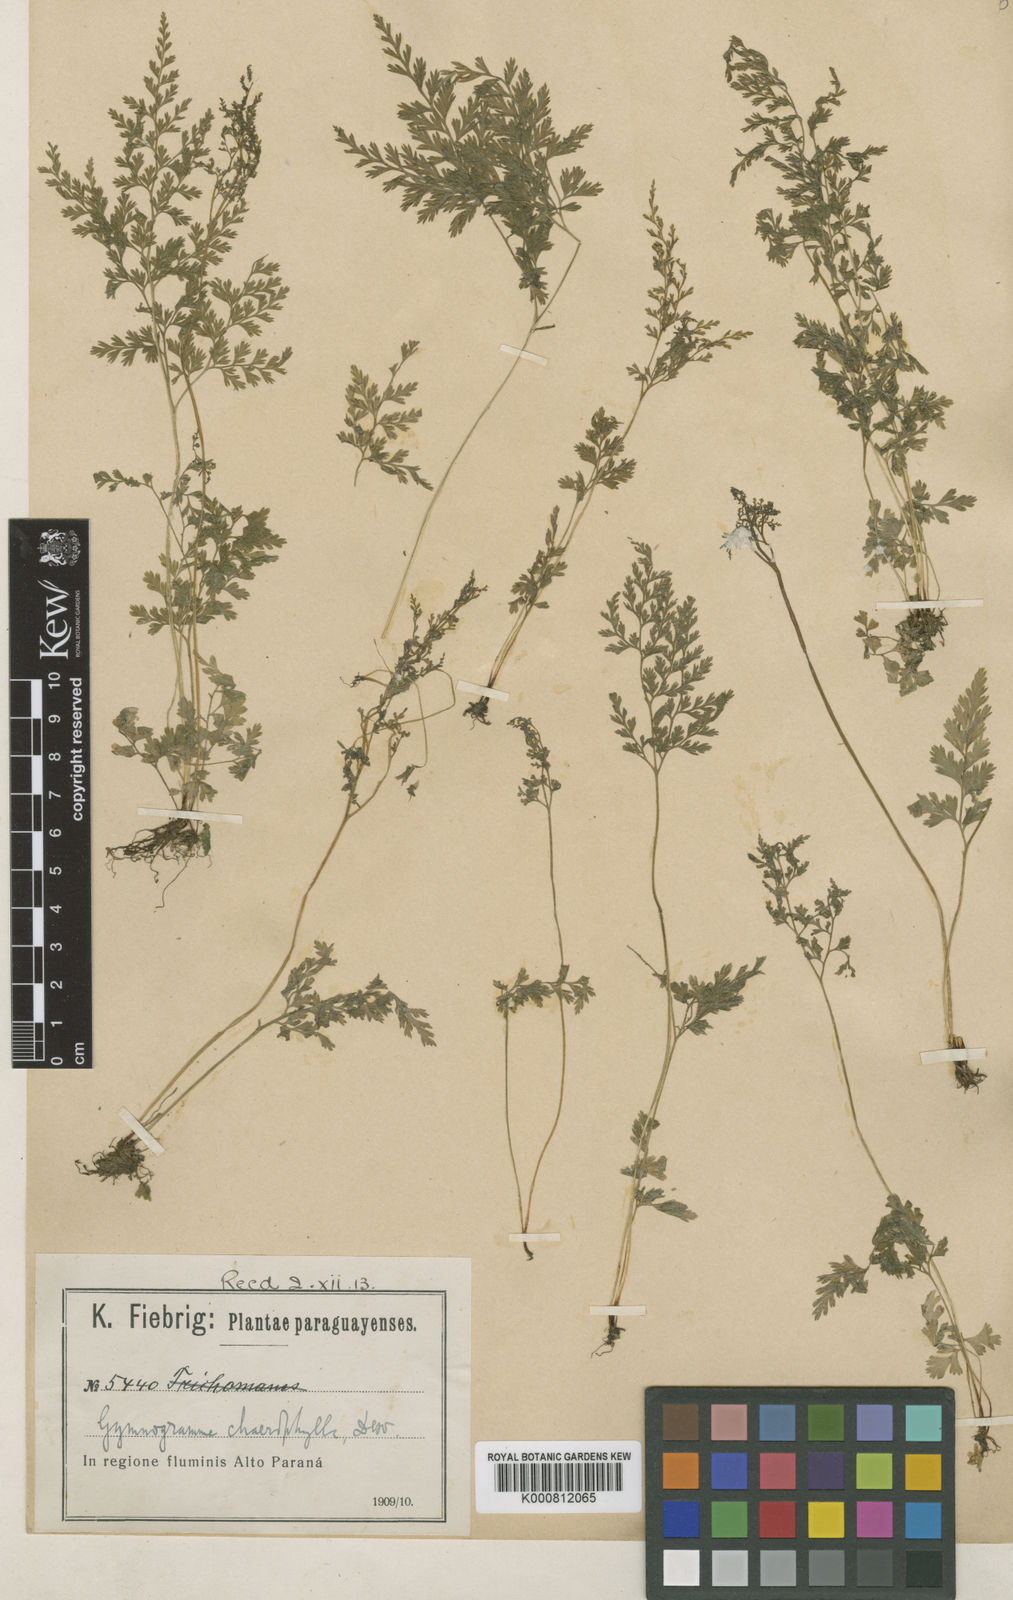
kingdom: Plantae
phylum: Tracheophyta
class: Polypodiopsida
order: Polypodiales
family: Pteridaceae
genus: Gastoniella
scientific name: Gastoniella chaerophylla
